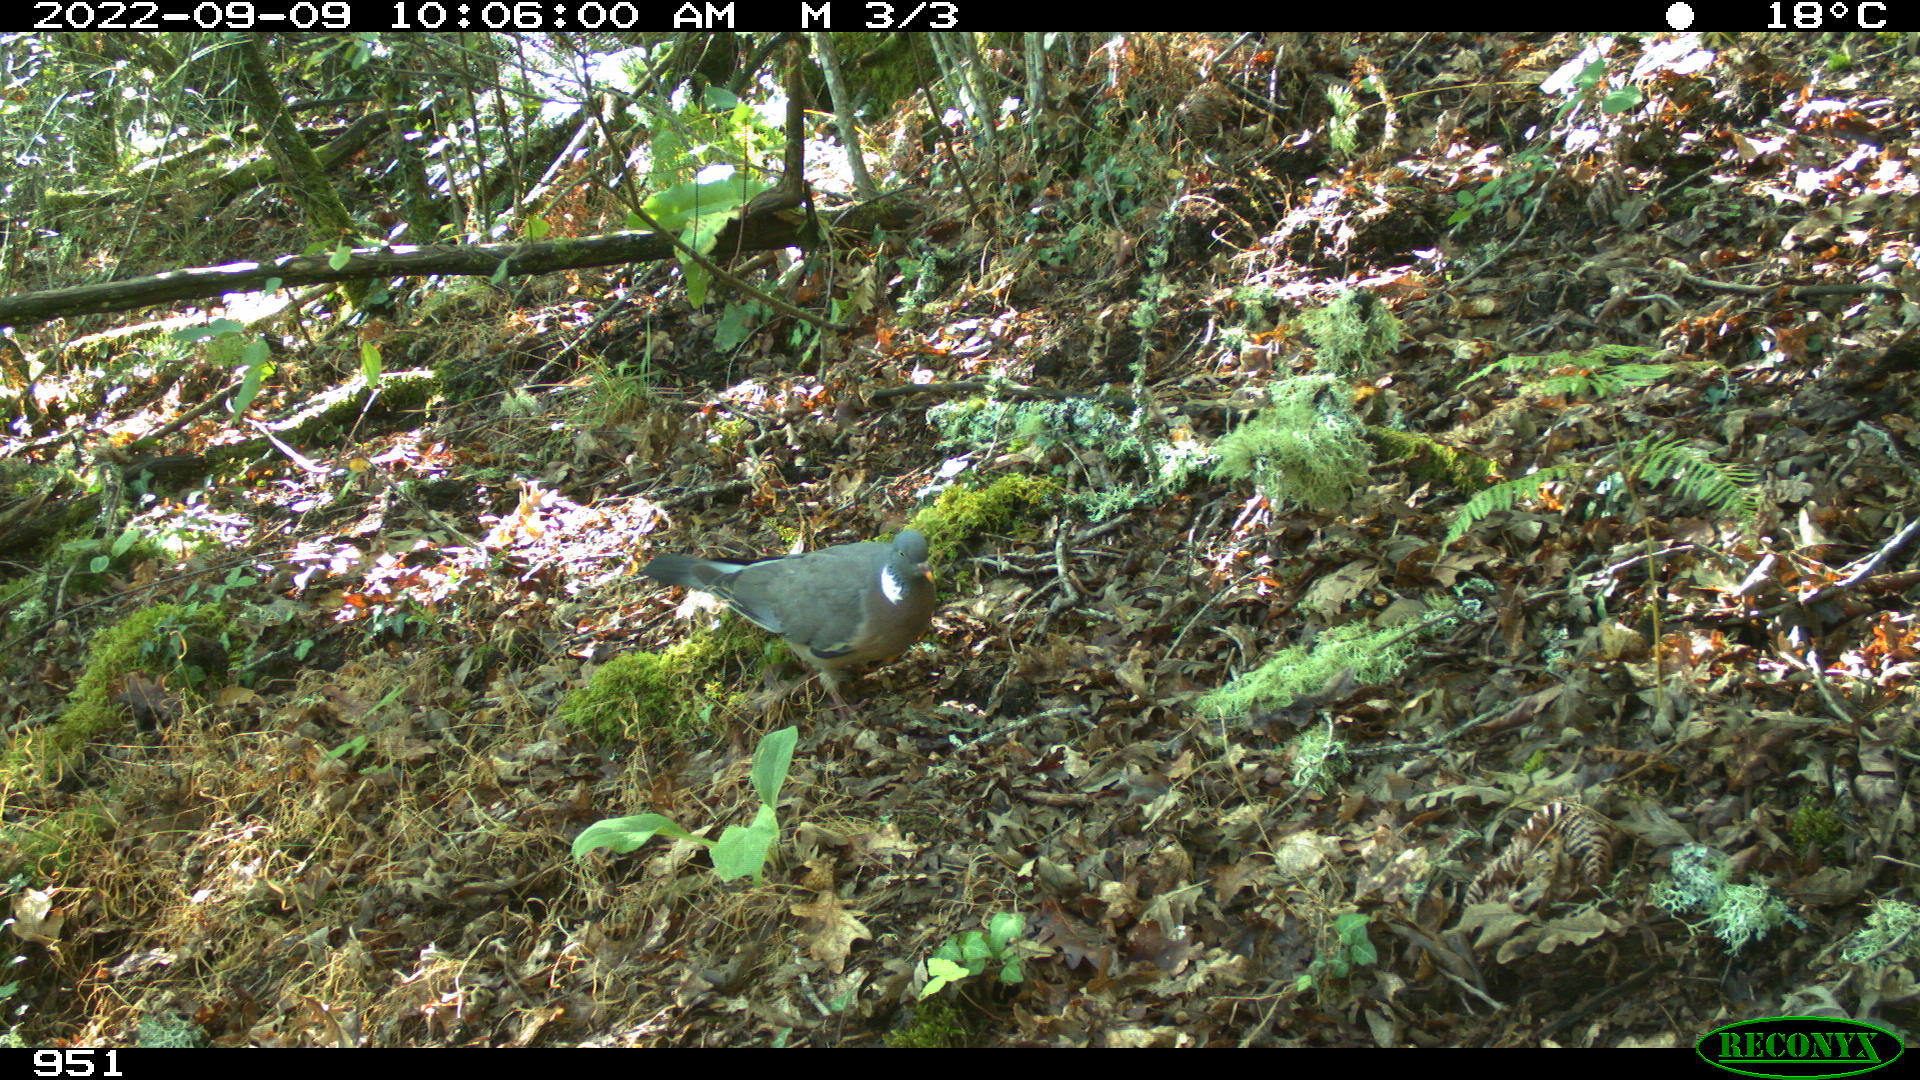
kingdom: Animalia
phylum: Chordata
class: Aves
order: Columbiformes
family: Columbidae
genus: Columba
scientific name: Columba palumbus
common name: Common wood pigeon
